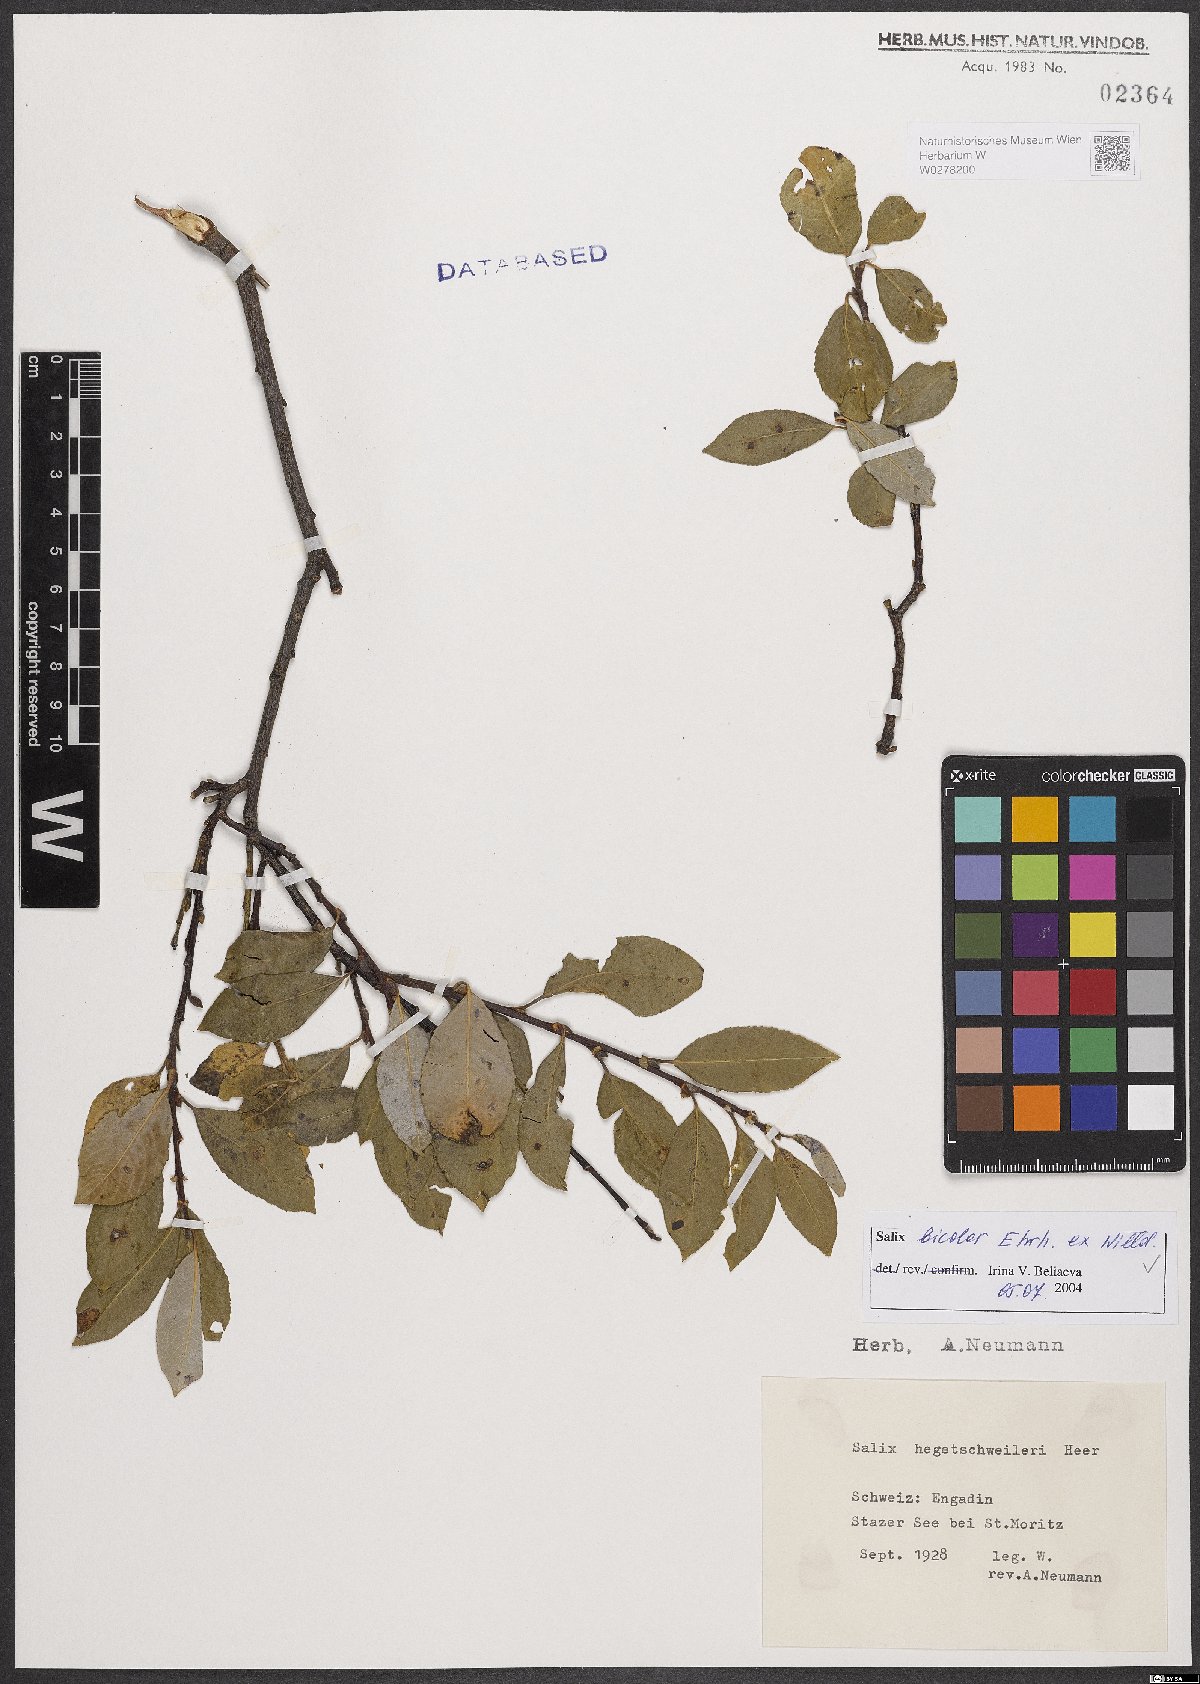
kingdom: Plantae
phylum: Tracheophyta
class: Magnoliopsida
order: Malpighiales
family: Salicaceae
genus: Salix
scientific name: Salix bicolor
